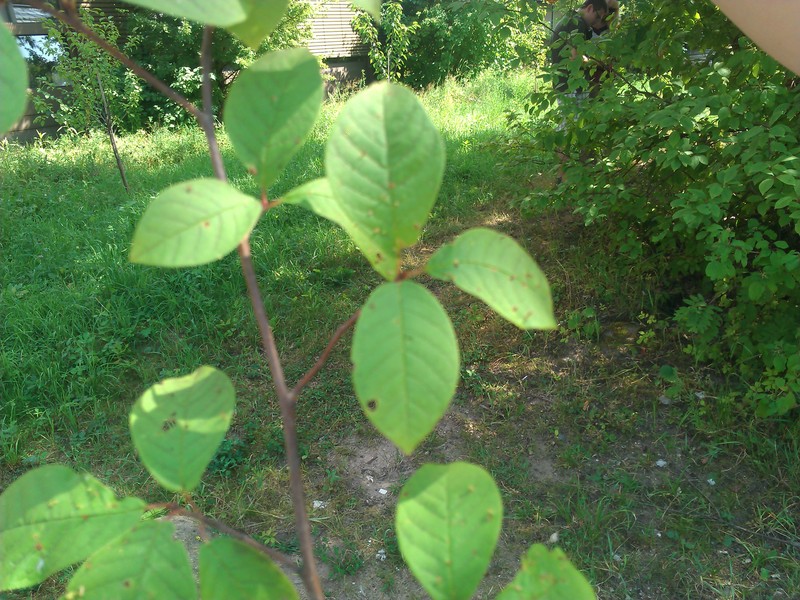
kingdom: Animalia
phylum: Arthropoda
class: Arachnida
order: Trombidiformes
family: Eriophyidae
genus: Eriophyes
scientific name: Eriophyes distinguendus
